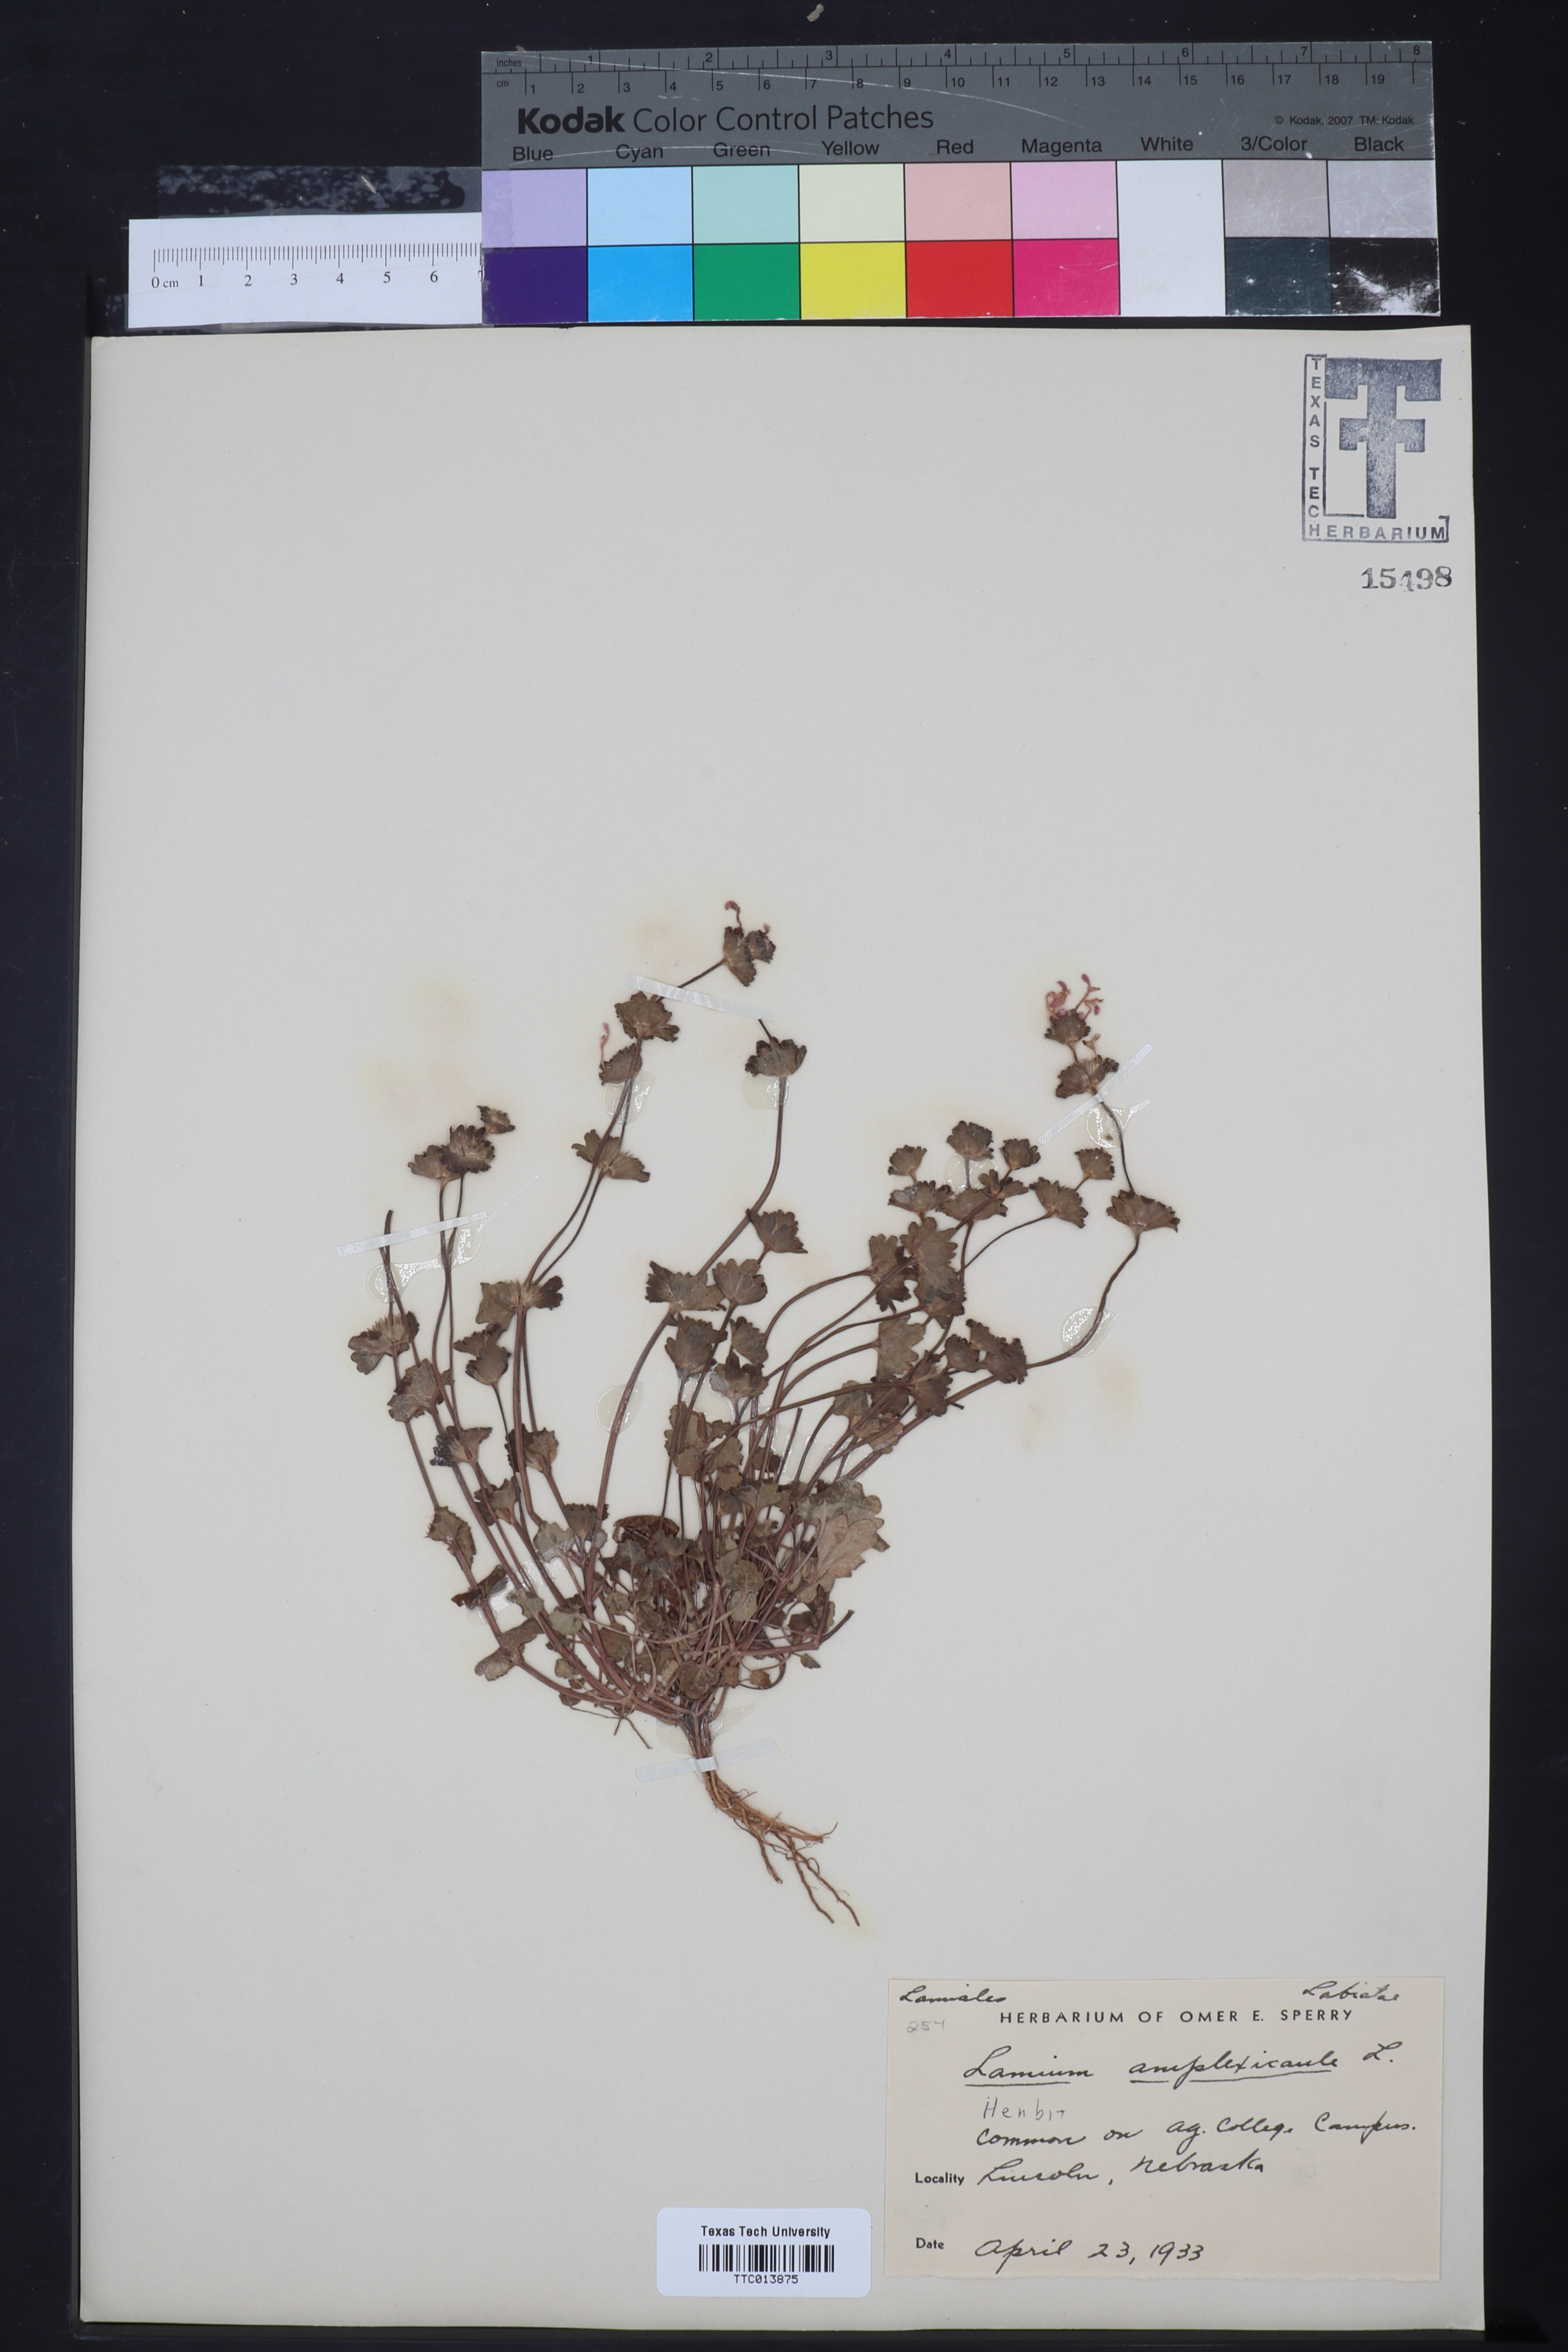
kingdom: Plantae
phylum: Tracheophyta
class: Magnoliopsida
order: Lamiales
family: Lamiaceae
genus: Lamium
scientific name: Lamium amplexicaule
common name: Henbit dead-nettle
